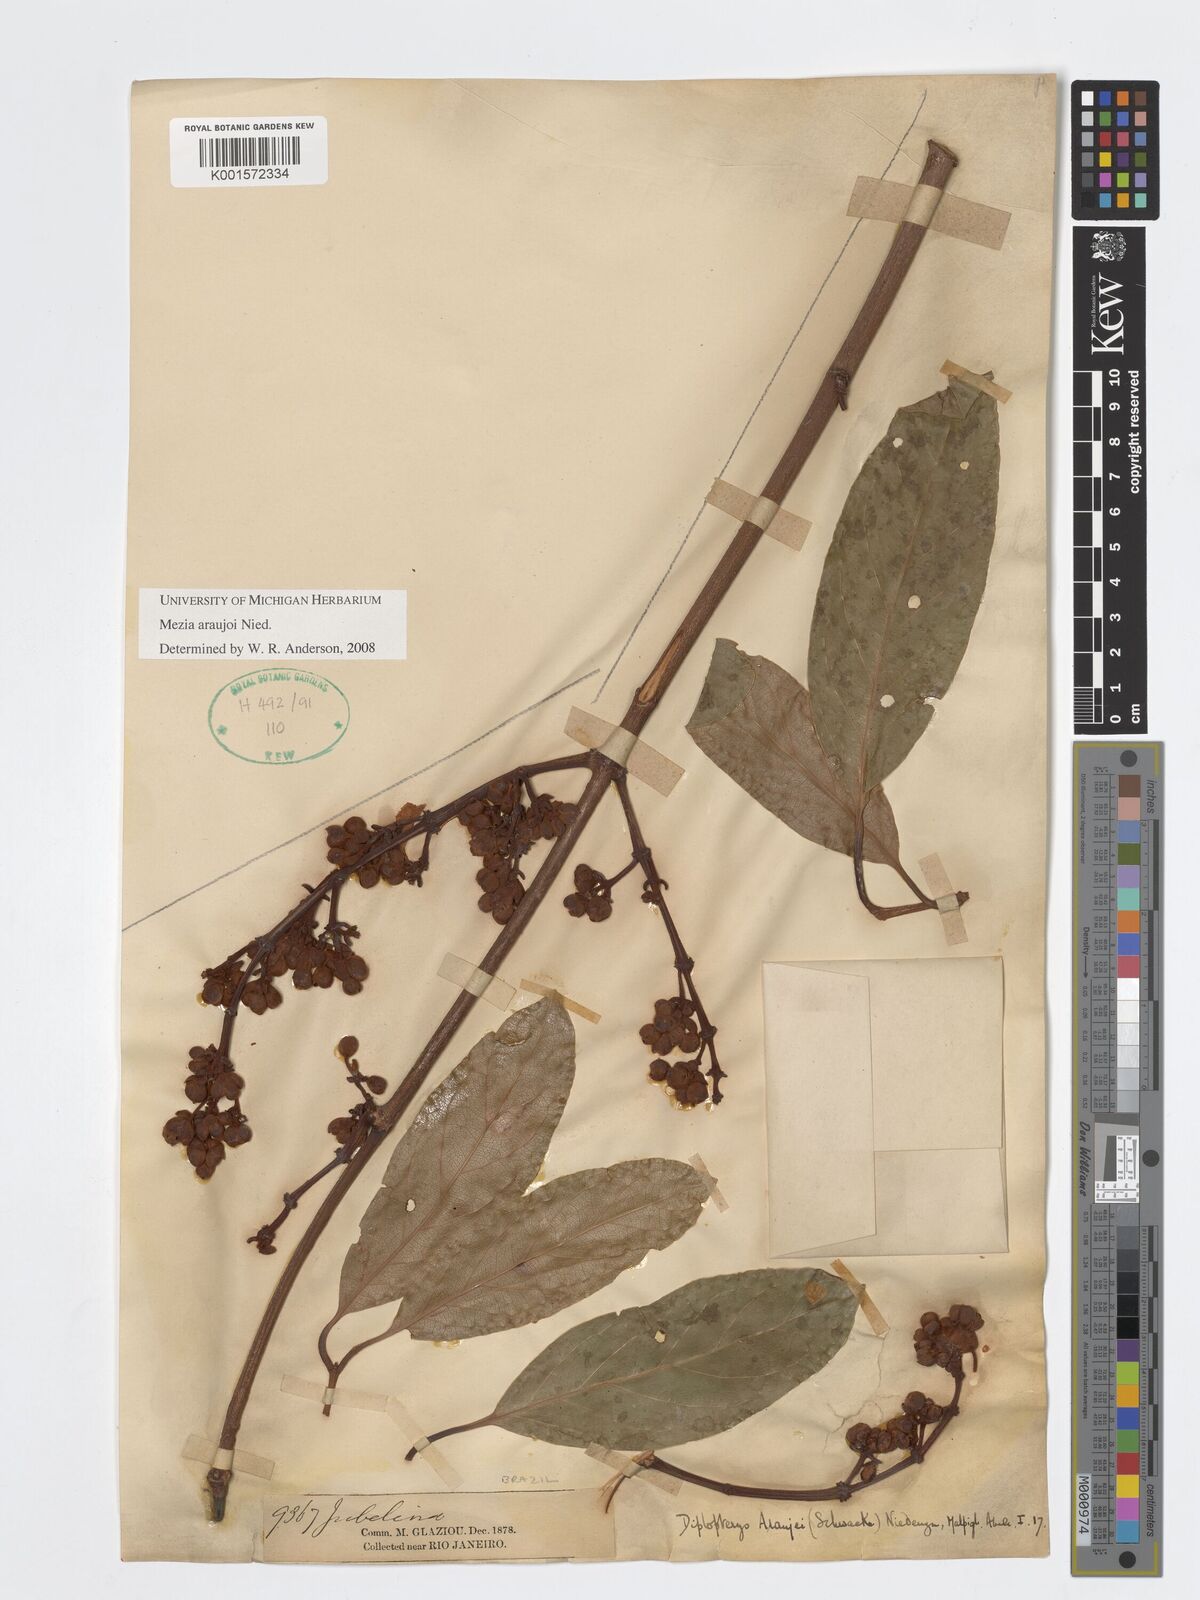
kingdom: Plantae
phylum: Tracheophyta
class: Magnoliopsida
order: Malpighiales
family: Malpighiaceae
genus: Mezia
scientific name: Mezia araujoi
